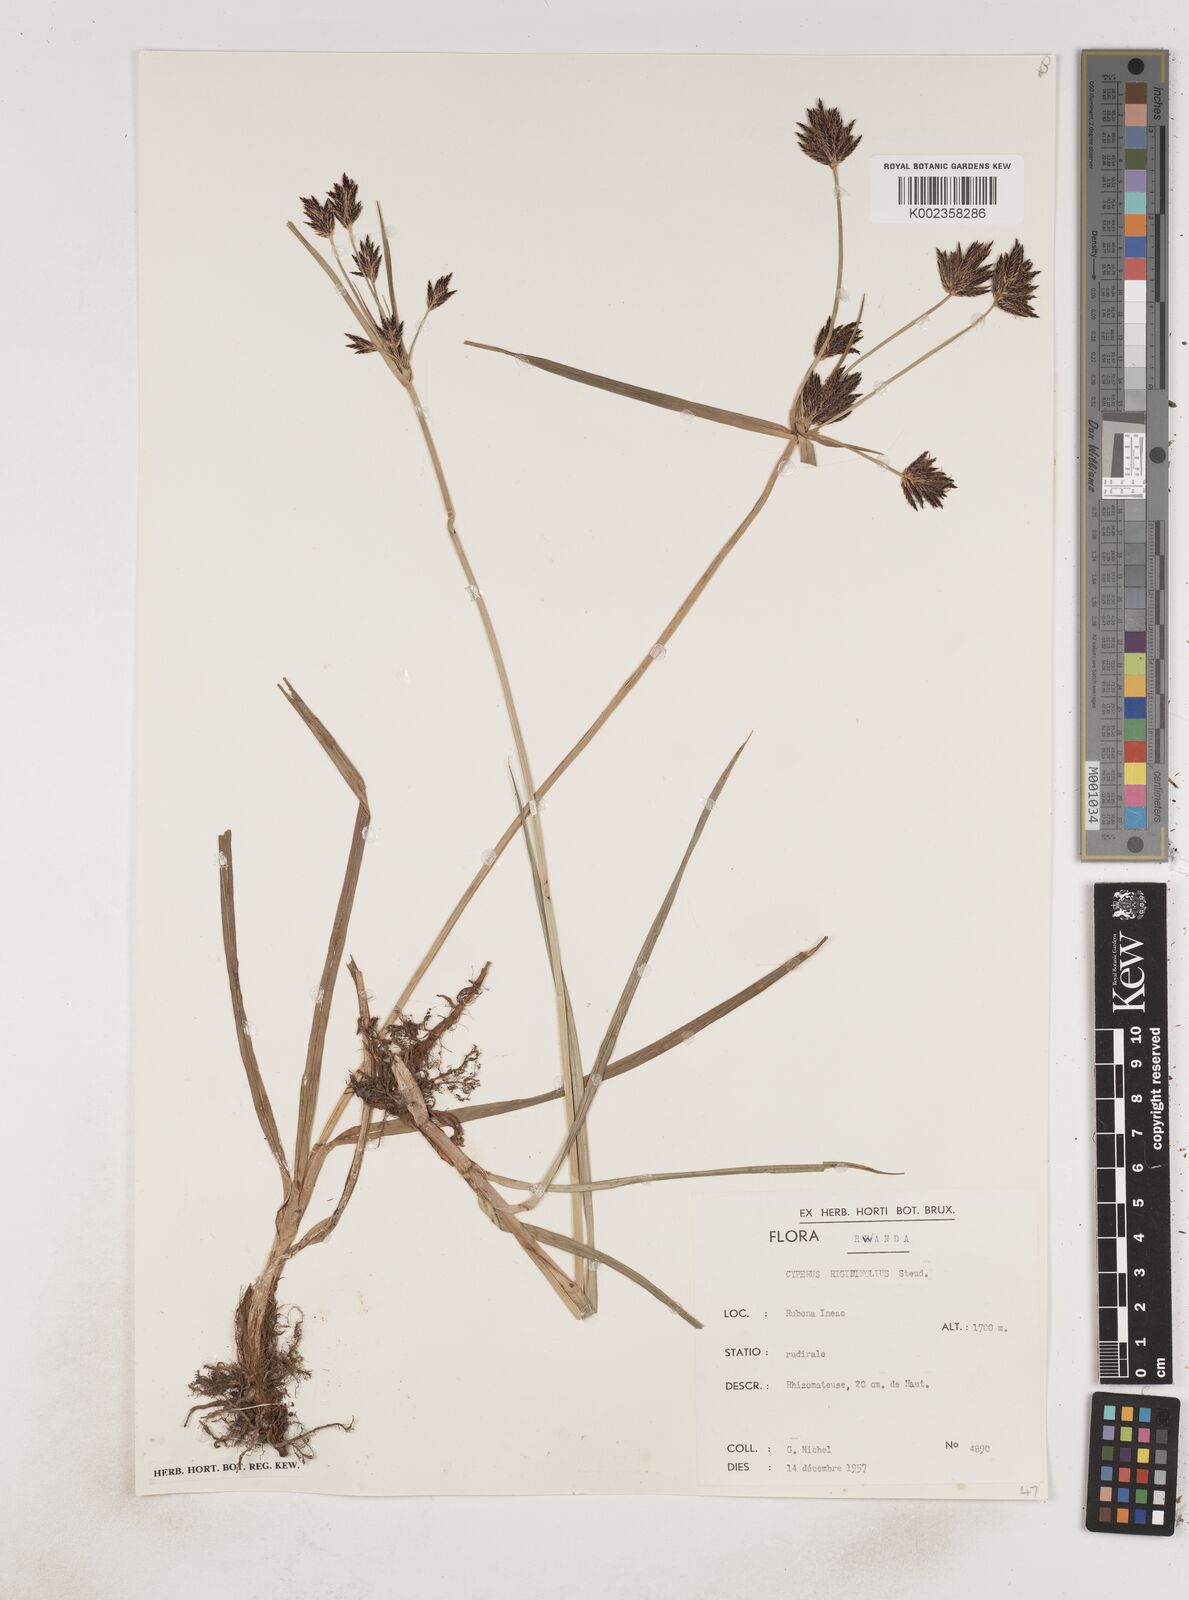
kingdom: Plantae
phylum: Tracheophyta
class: Liliopsida
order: Poales
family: Cyperaceae
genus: Cyperus
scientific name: Cyperus rigidifolius
